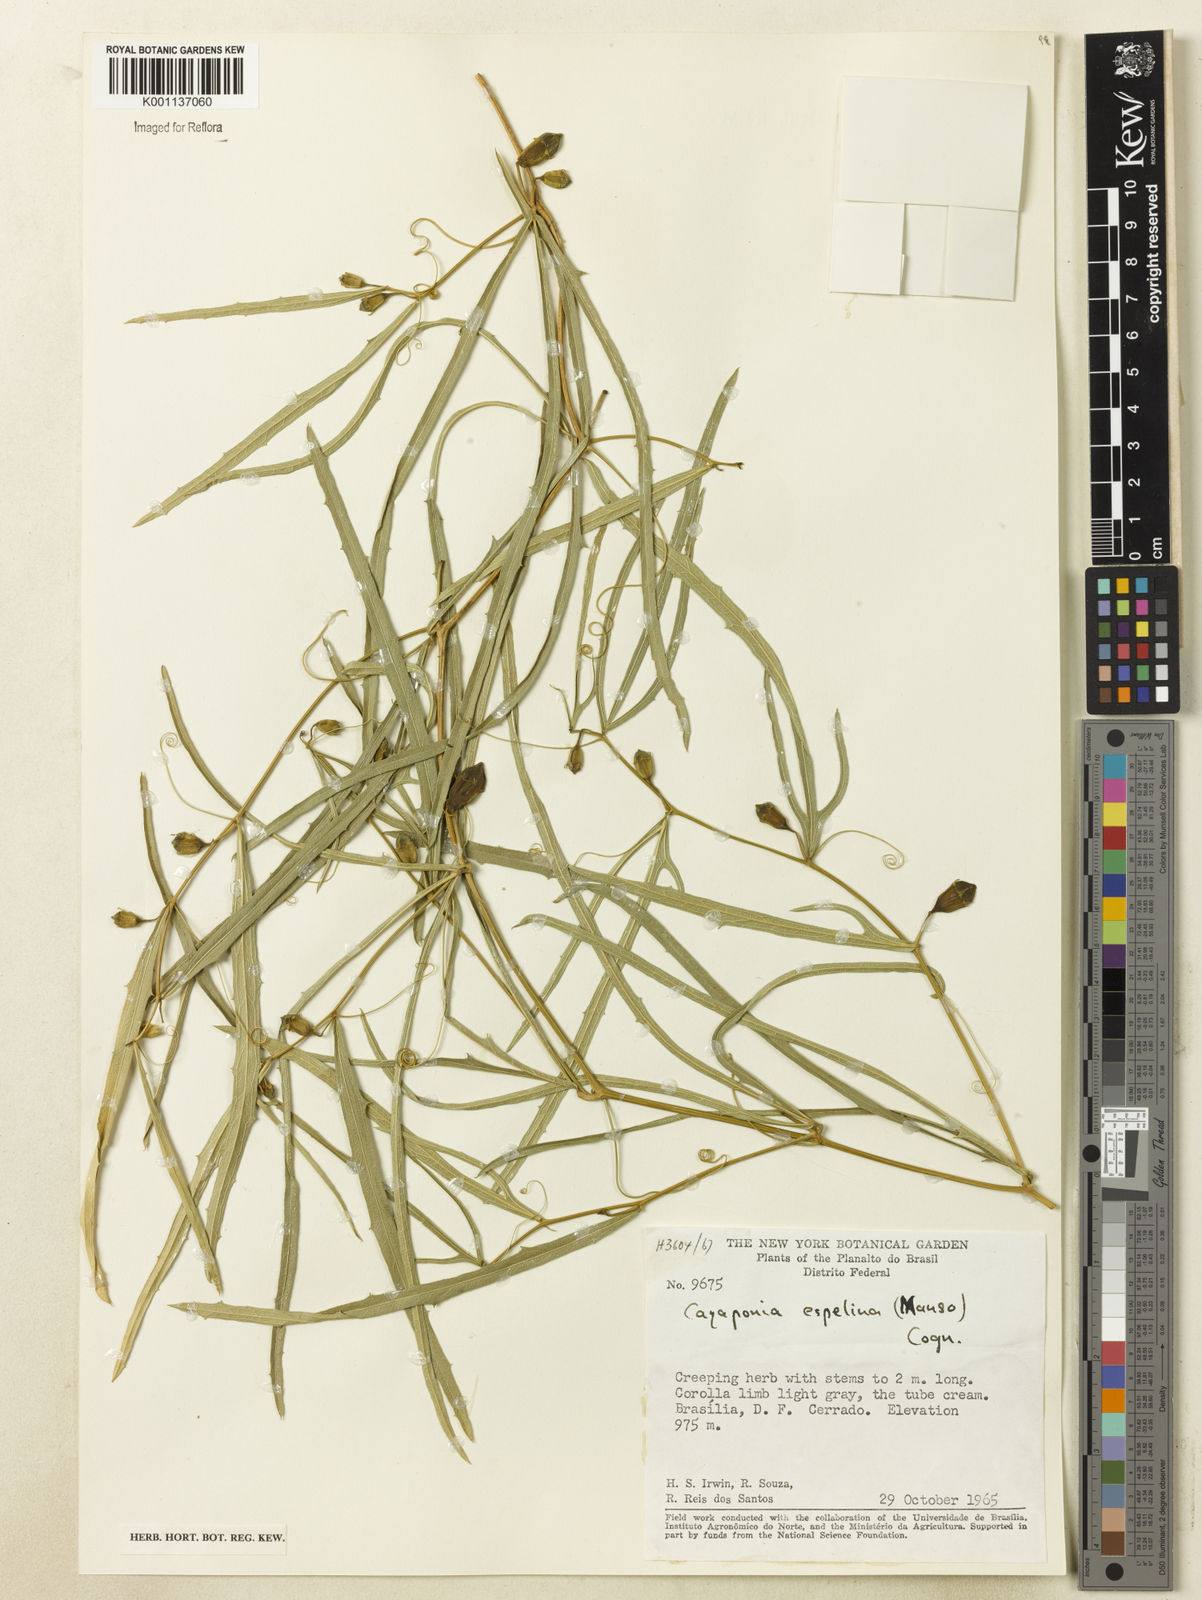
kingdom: Plantae
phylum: Tracheophyta
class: Magnoliopsida
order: Cucurbitales
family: Cucurbitaceae
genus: Cayaponia
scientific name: Cayaponia espelina
